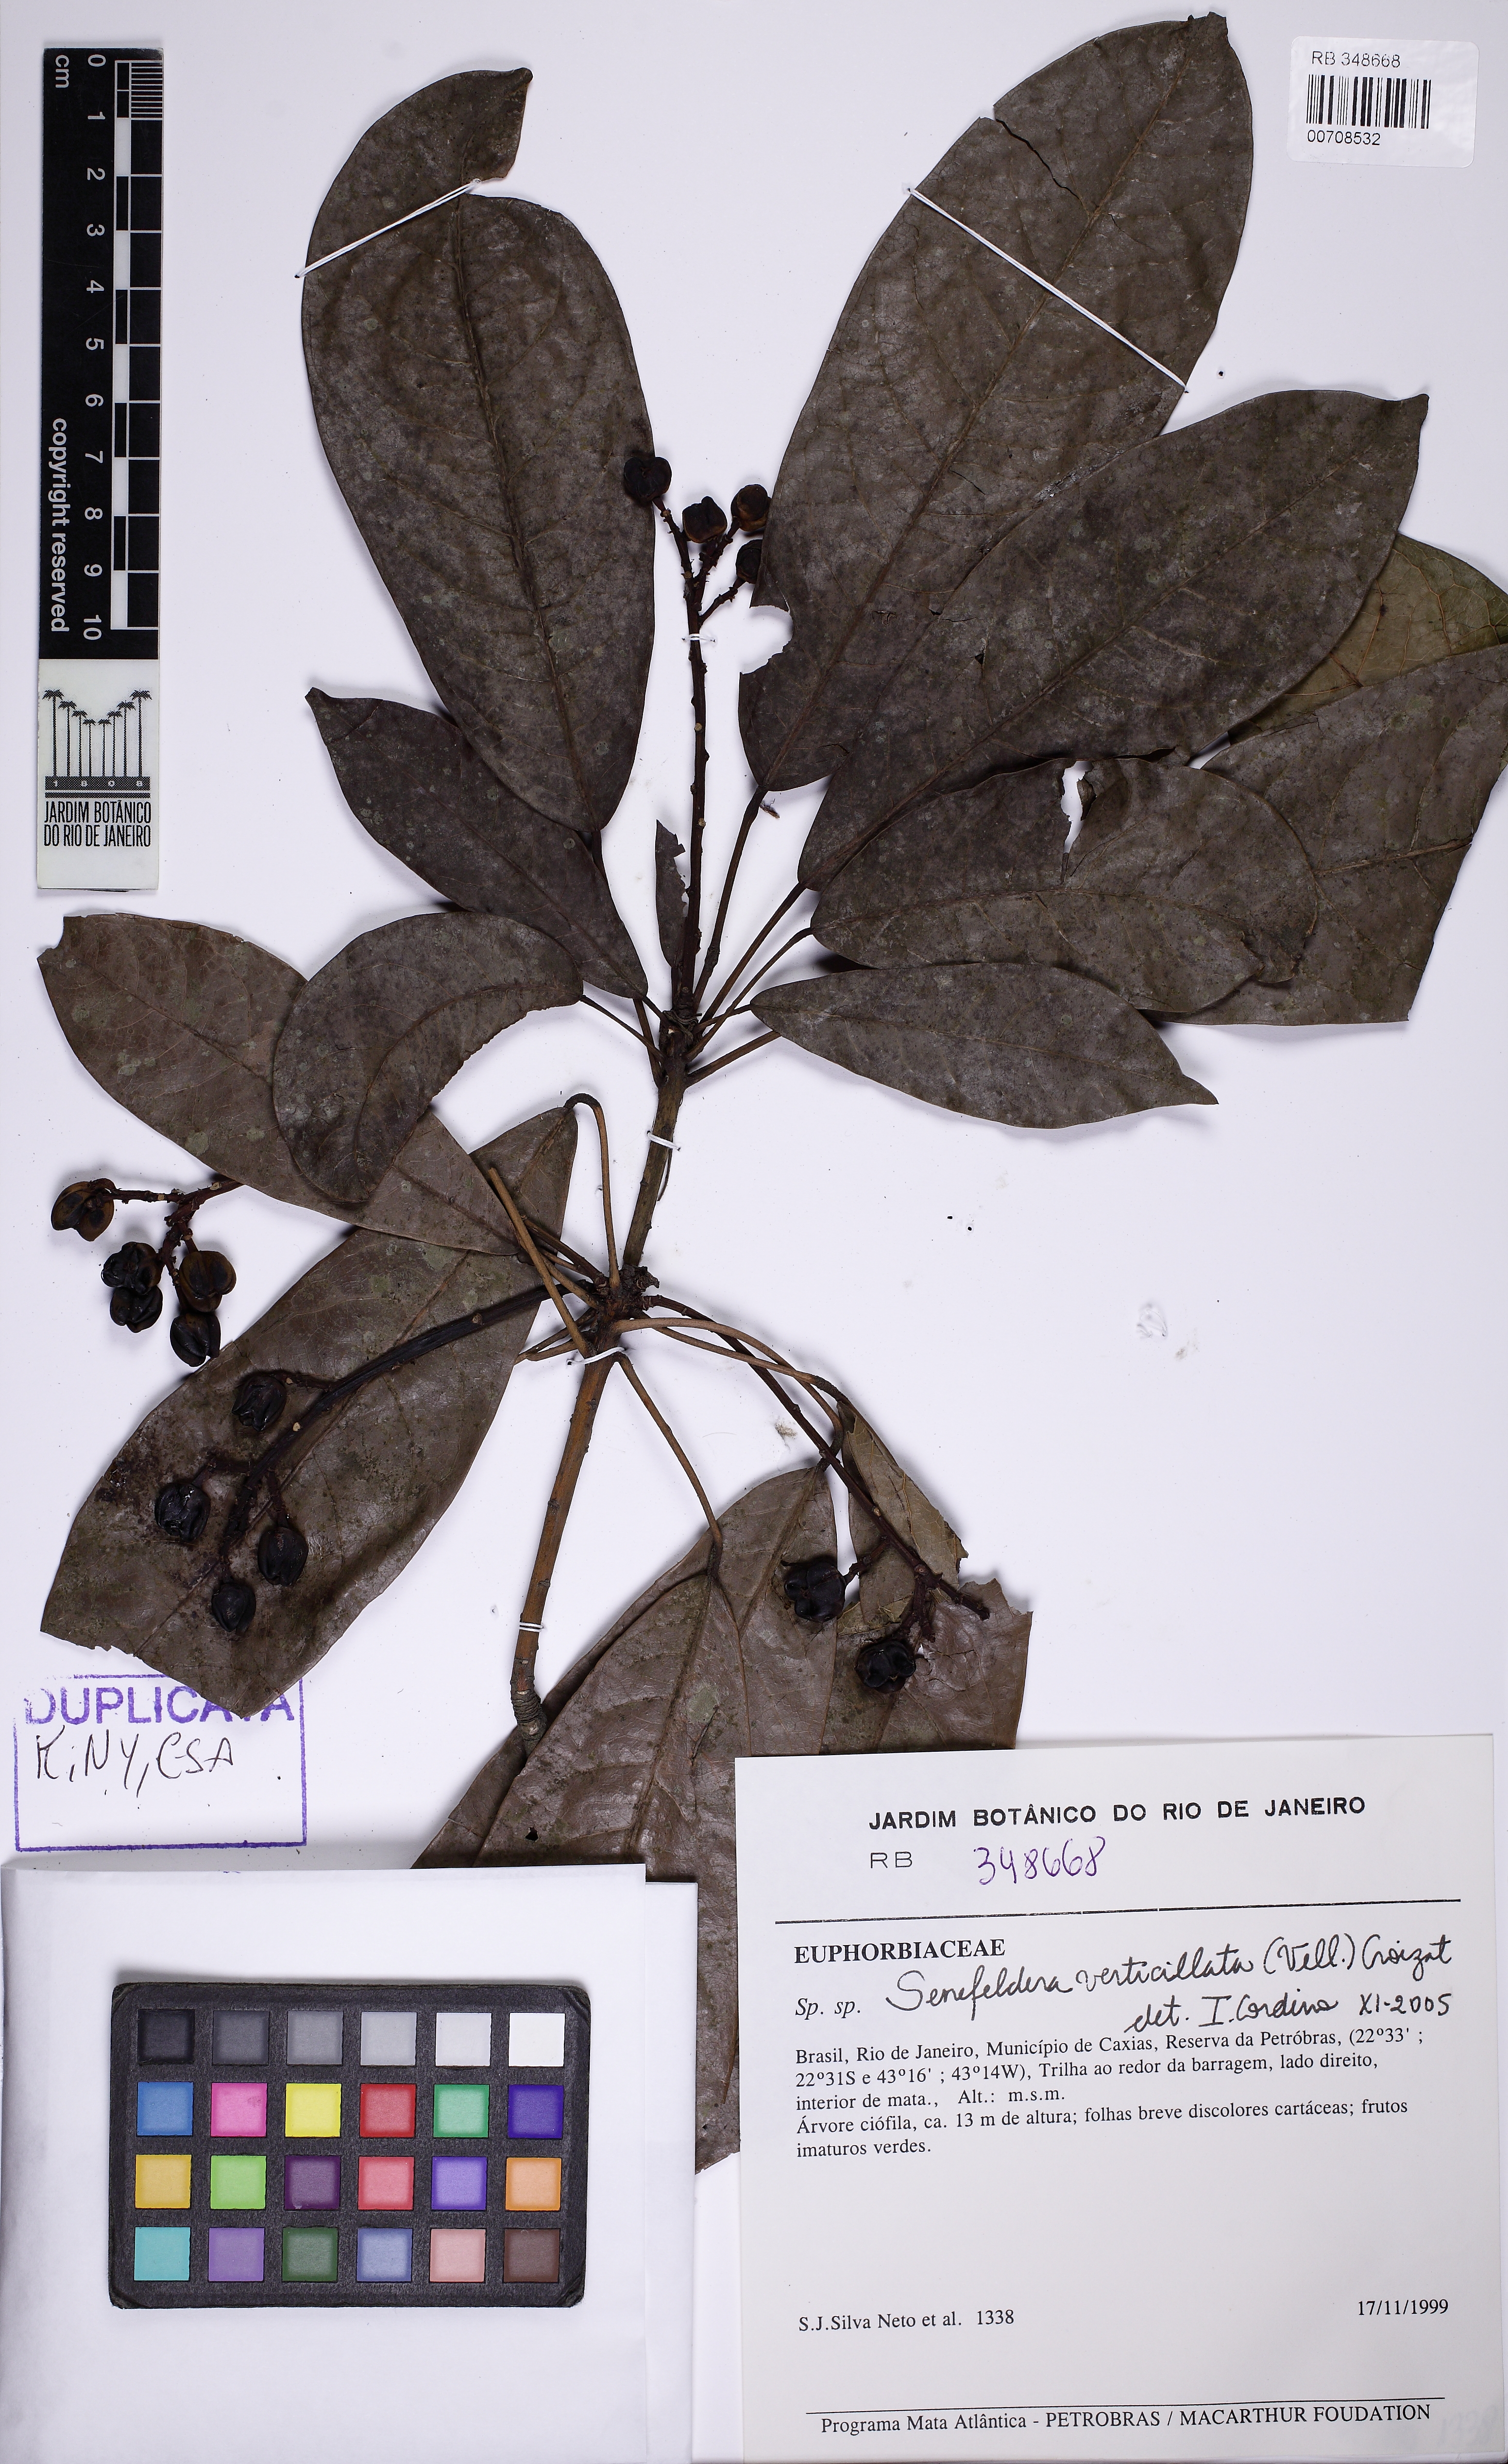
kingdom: Plantae
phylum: Tracheophyta
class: Magnoliopsida
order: Malpighiales
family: Euphorbiaceae
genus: Senefeldera
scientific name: Senefeldera verticillata
